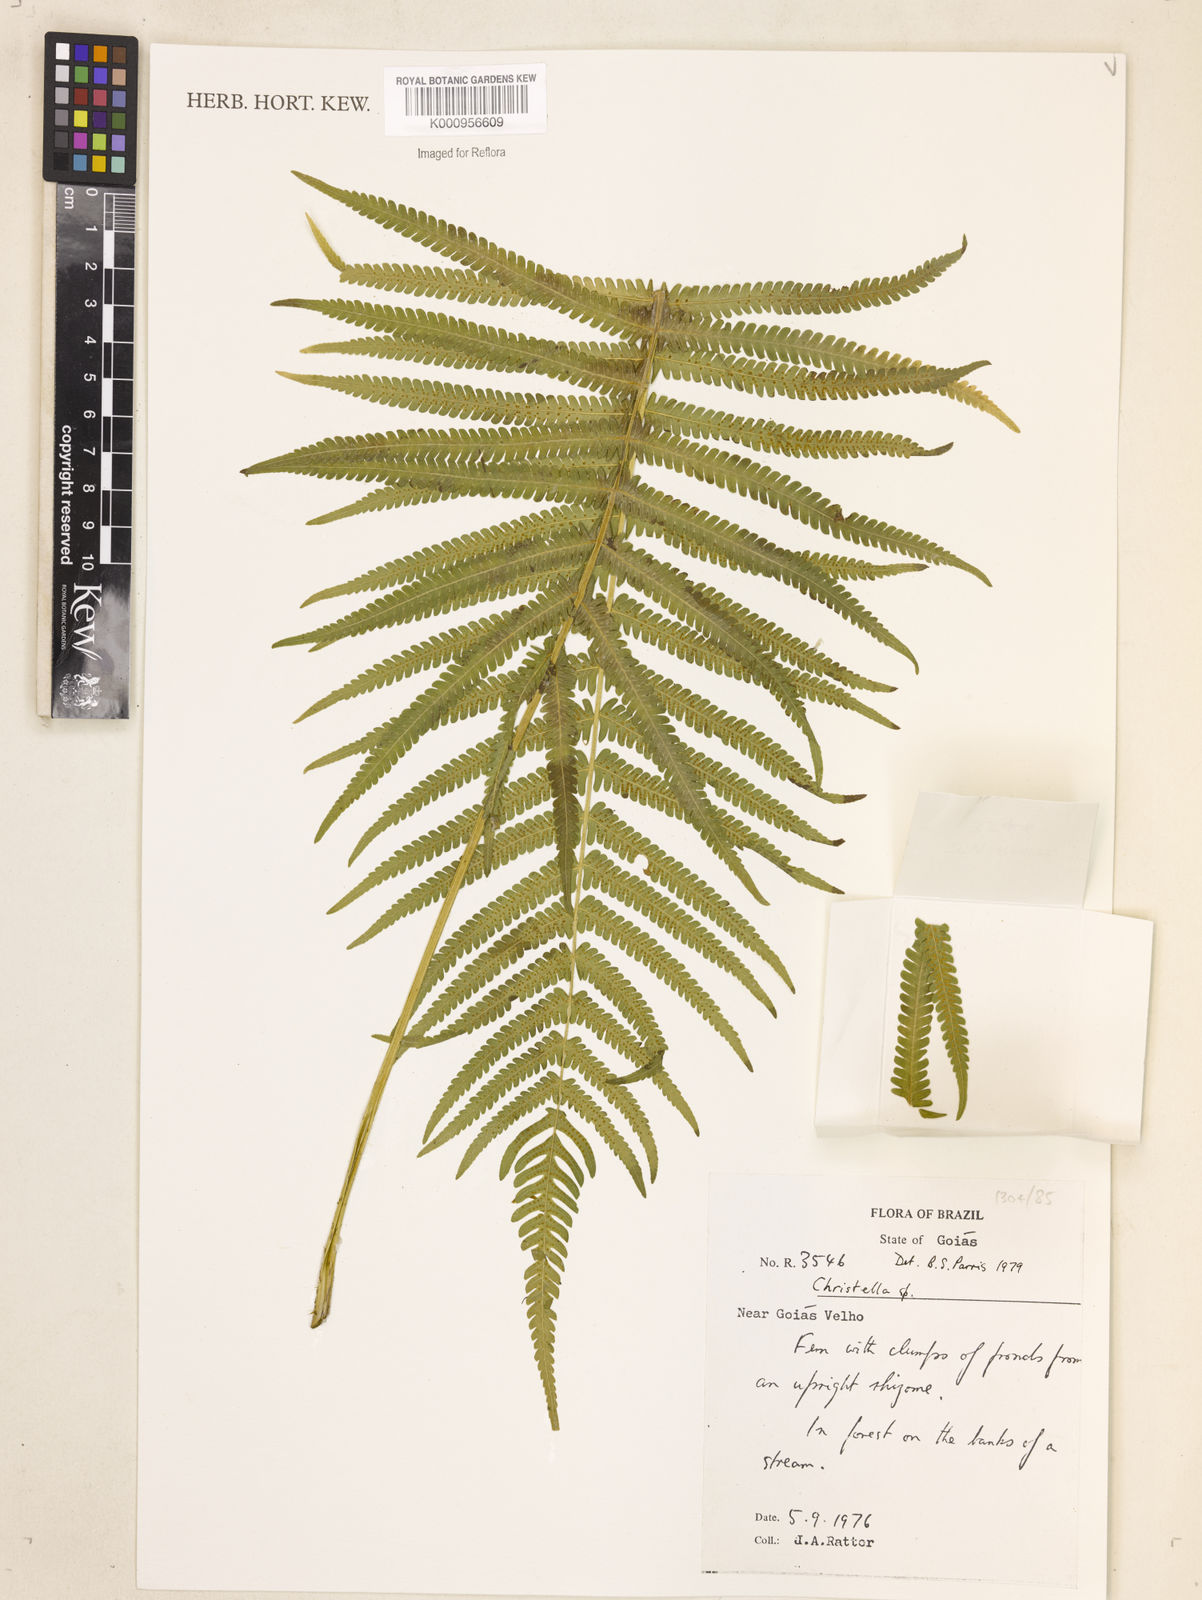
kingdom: Plantae
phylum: Tracheophyta
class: Polypodiopsida
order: Polypodiales
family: Thelypteridaceae
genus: Christella
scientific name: Christella
